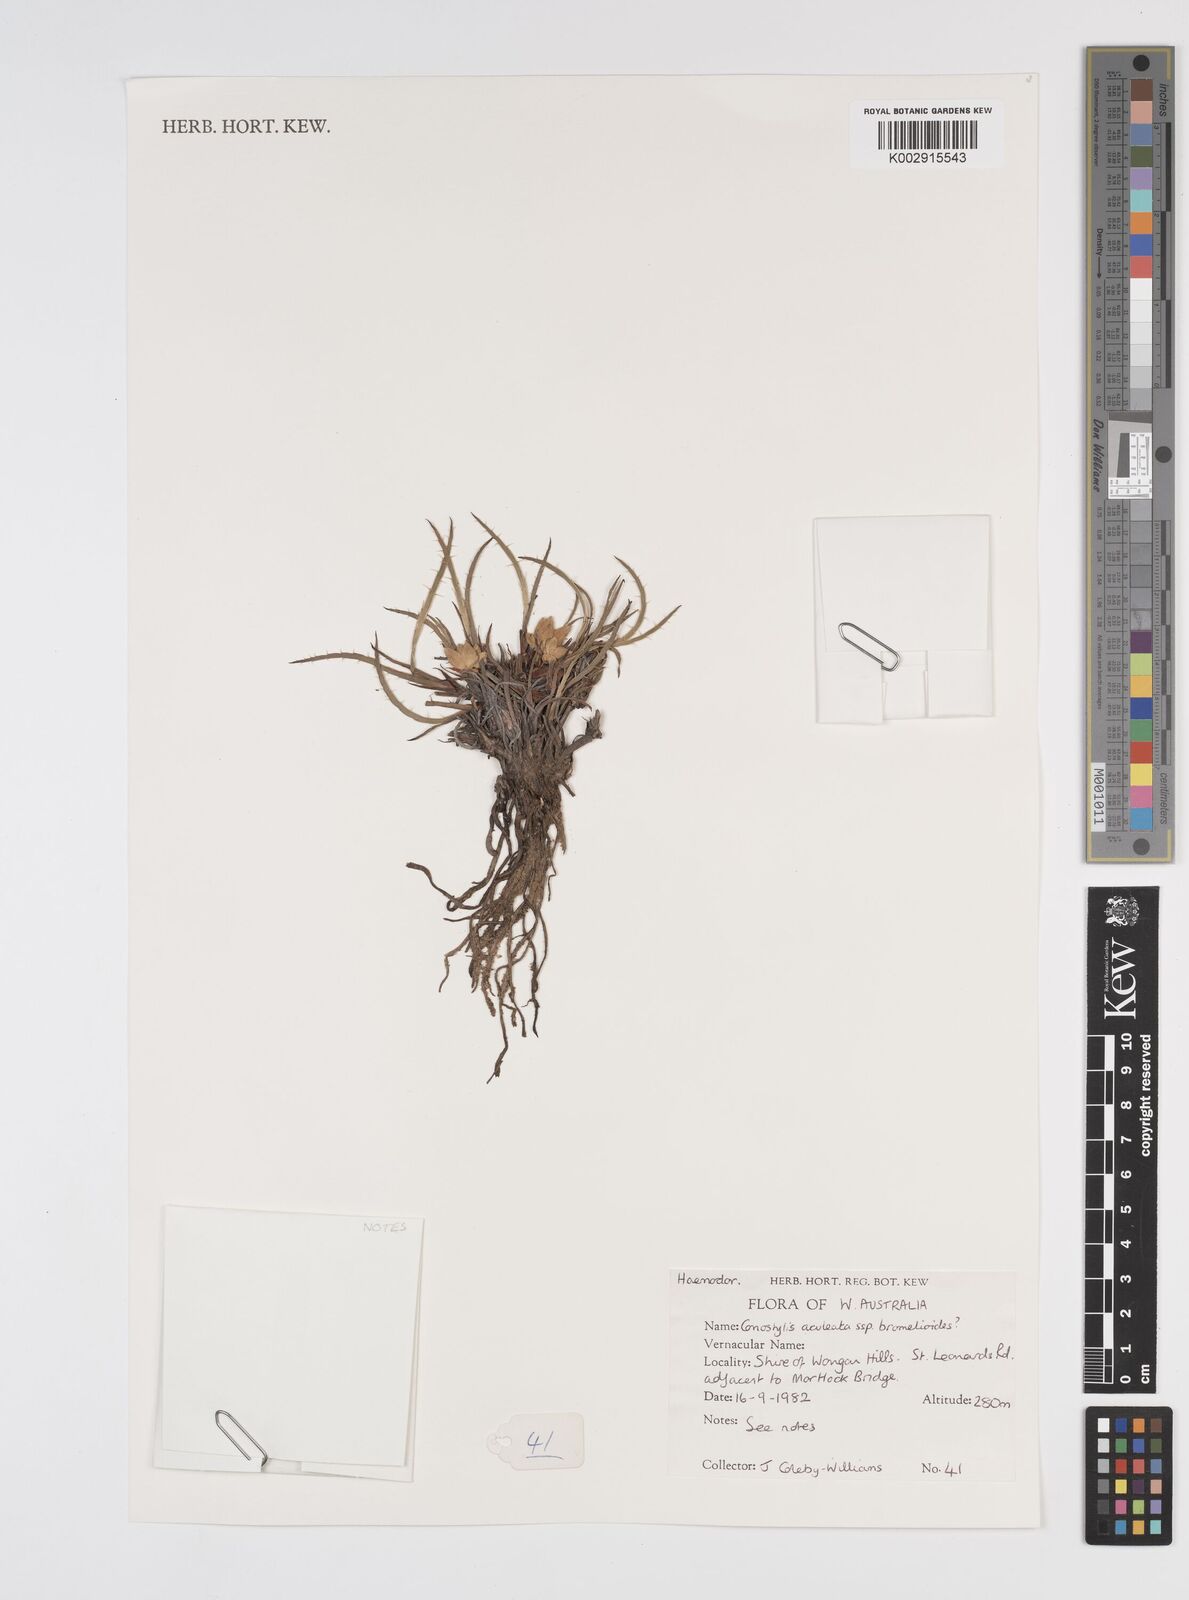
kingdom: Plantae
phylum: Tracheophyta
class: Liliopsida
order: Commelinales
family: Haemodoraceae
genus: Conostylis
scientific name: Conostylis aculeata
